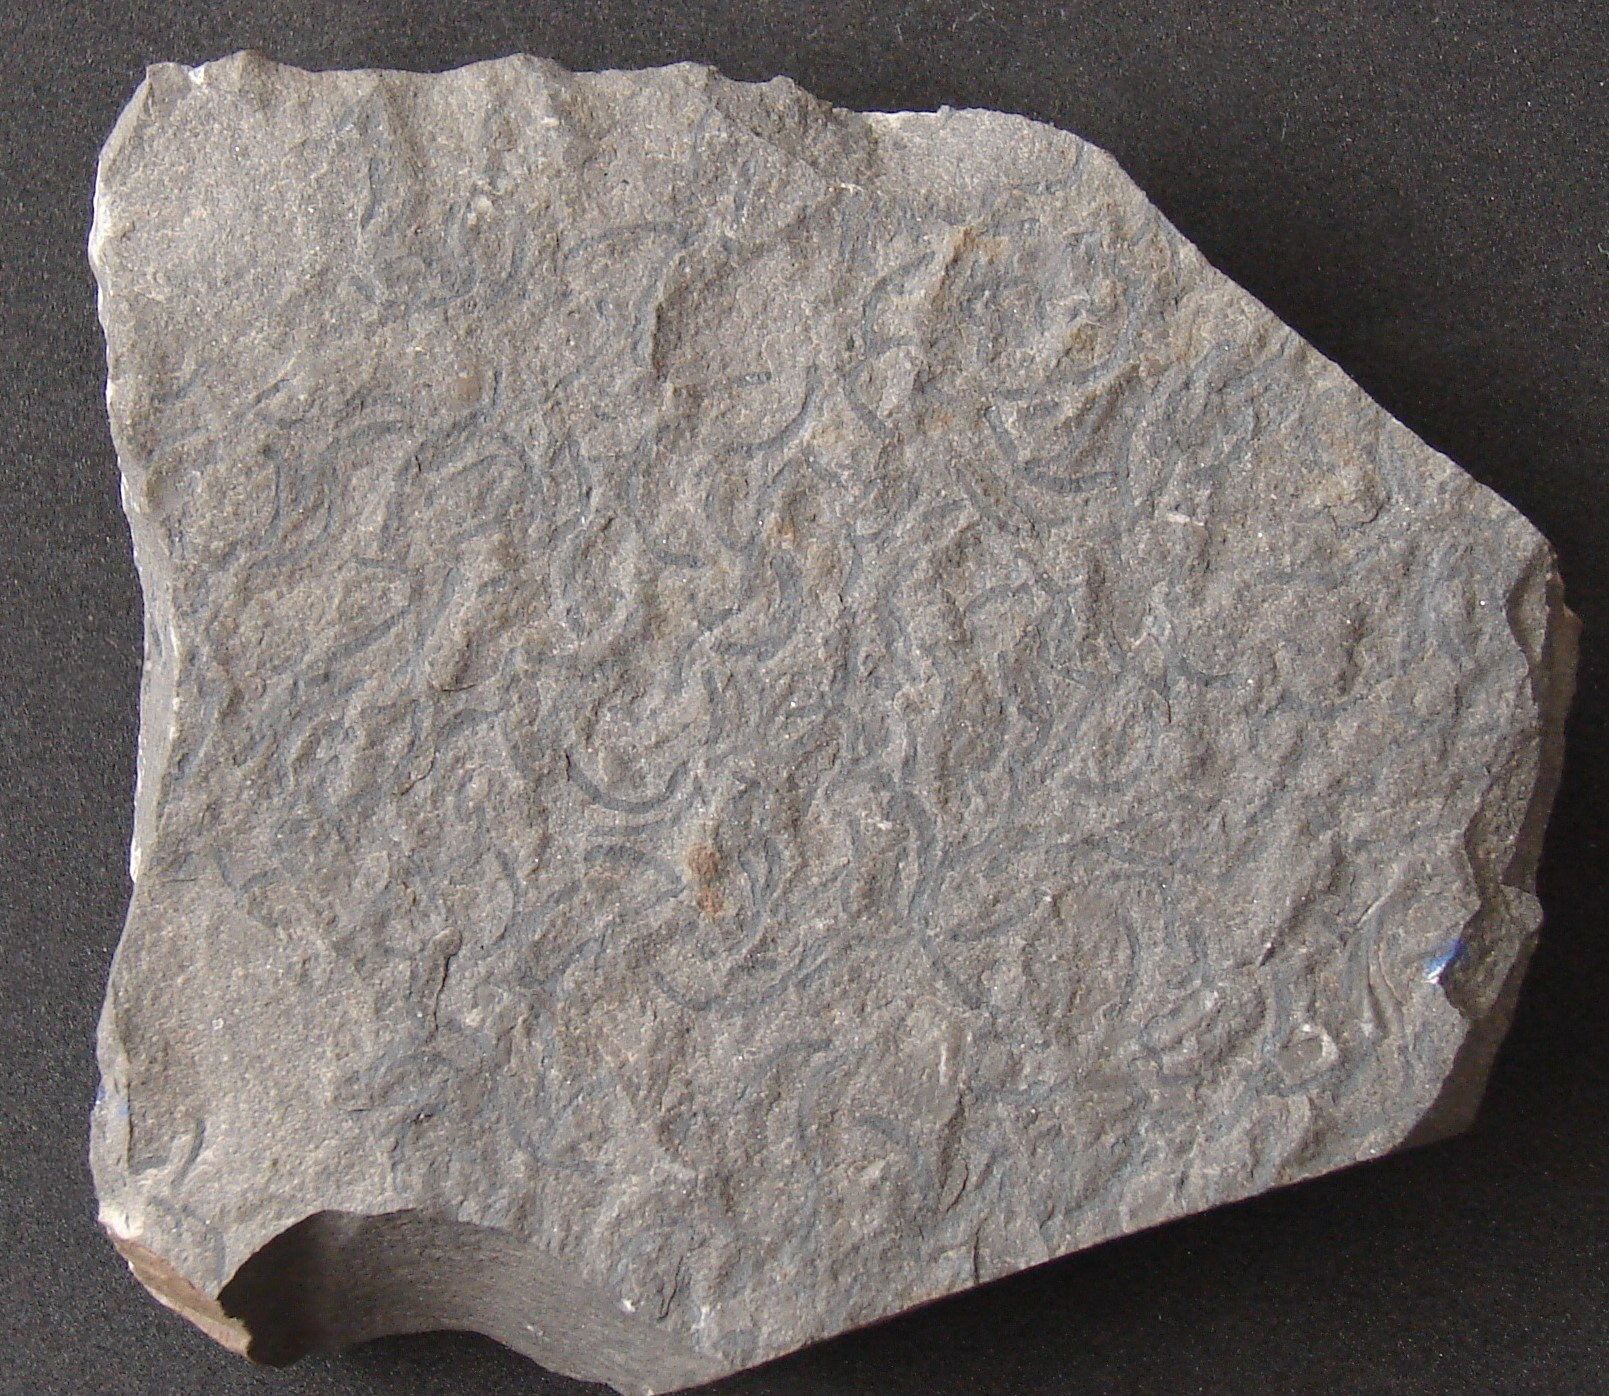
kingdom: Animalia
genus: Chondrites
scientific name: Chondrites
